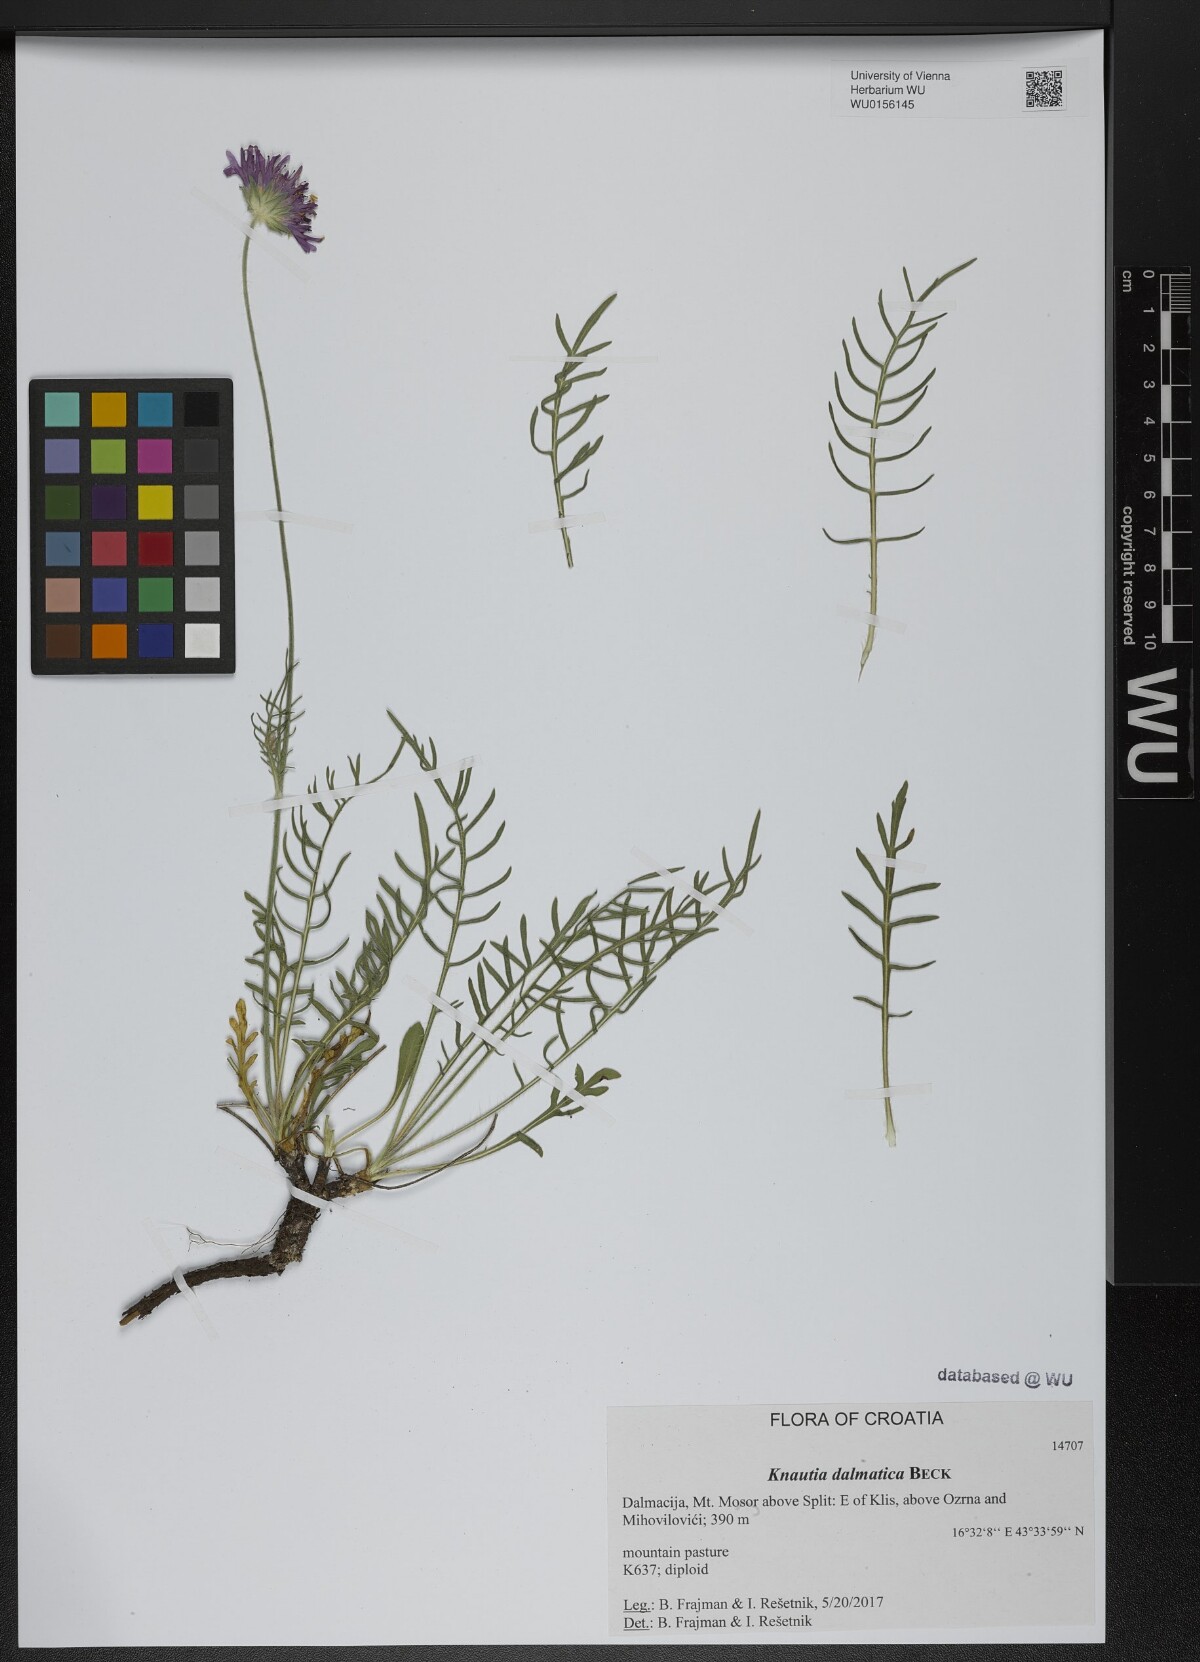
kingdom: Plantae
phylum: Tracheophyta
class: Magnoliopsida
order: Dipsacales
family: Caprifoliaceae
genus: Knautia
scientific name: Knautia dalmatica
